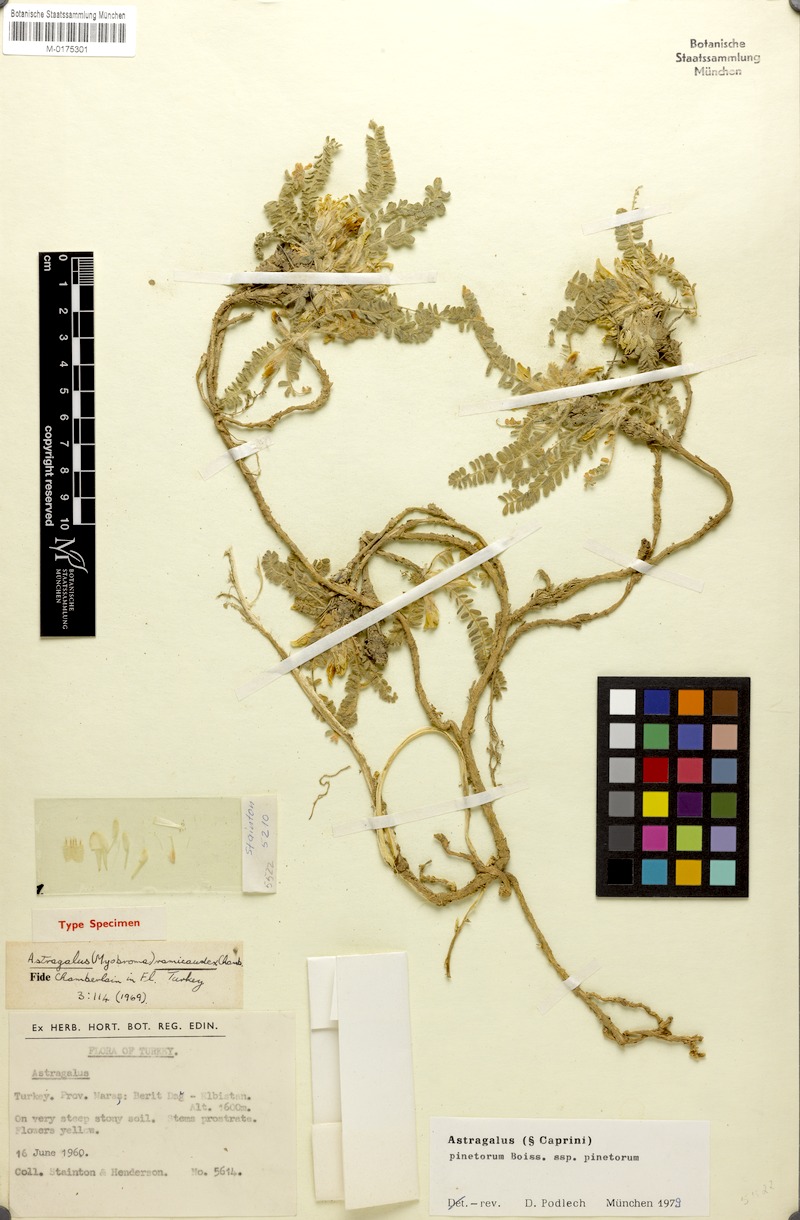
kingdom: Plantae
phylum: Tracheophyta
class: Magnoliopsida
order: Fabales
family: Fabaceae
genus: Astragalus
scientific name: Astragalus pinetorum
